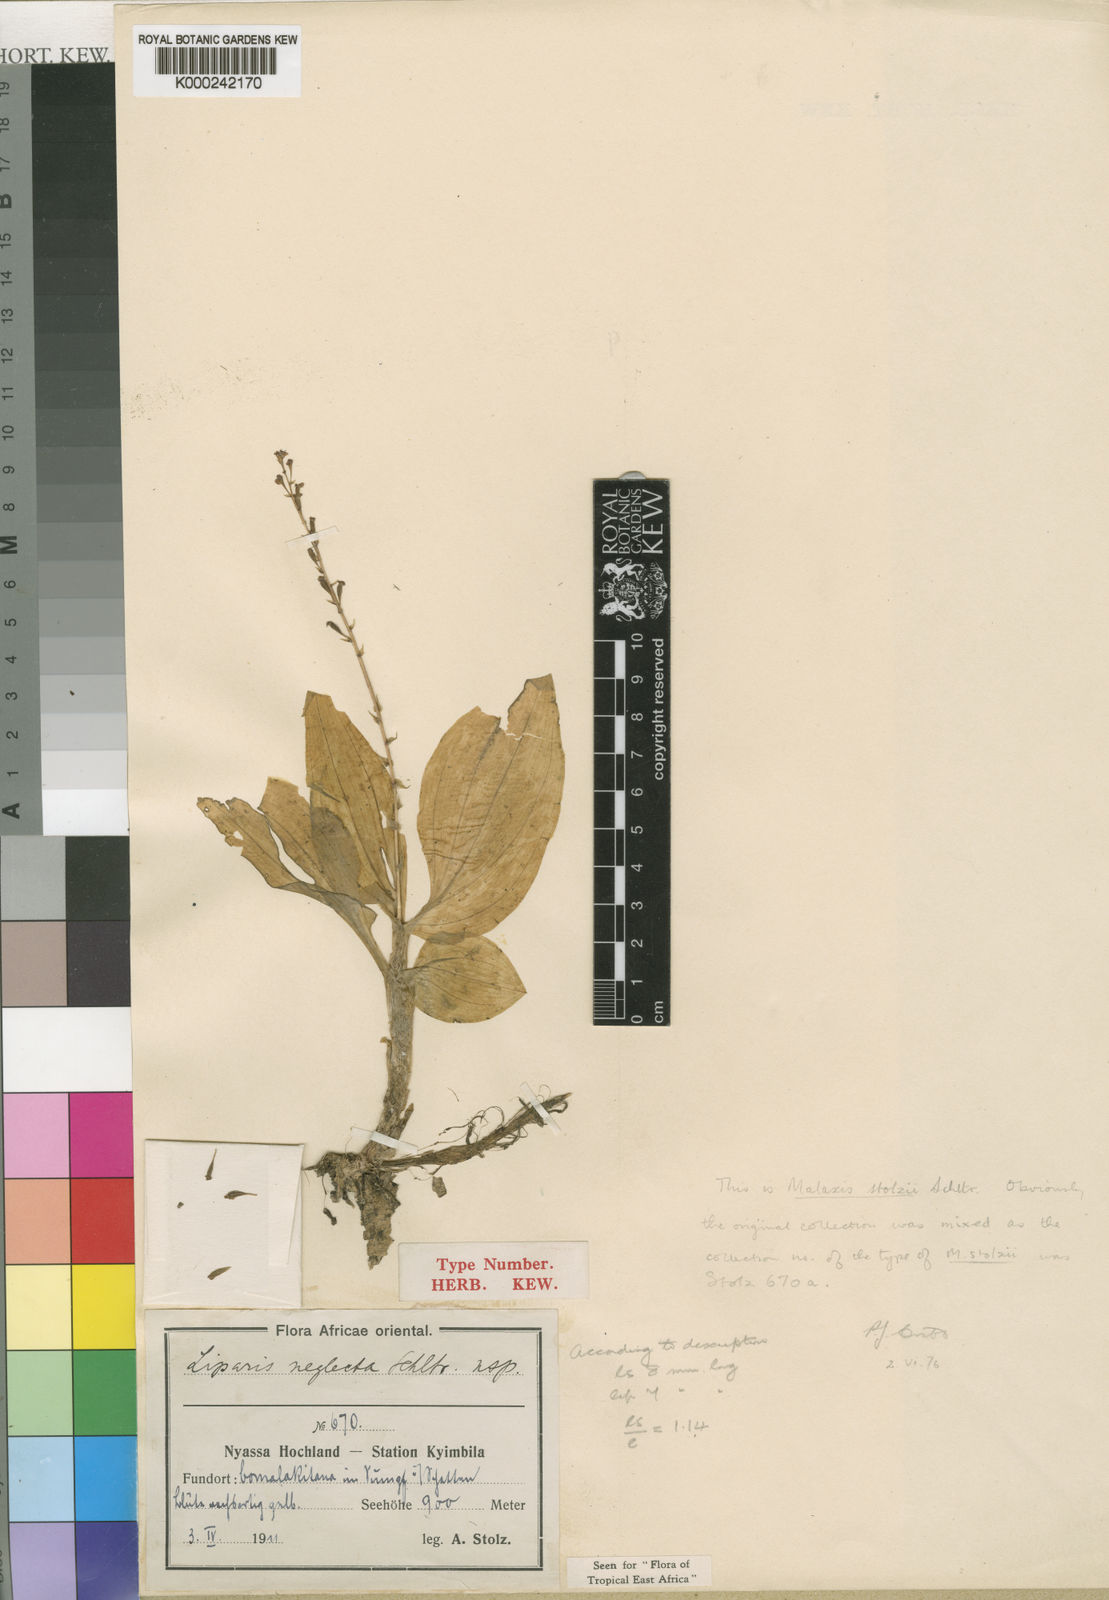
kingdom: Plantae
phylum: Tracheophyta
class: Liliopsida
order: Asparagales
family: Orchidaceae
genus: Malaxis
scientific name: Malaxis weberbaueriana
